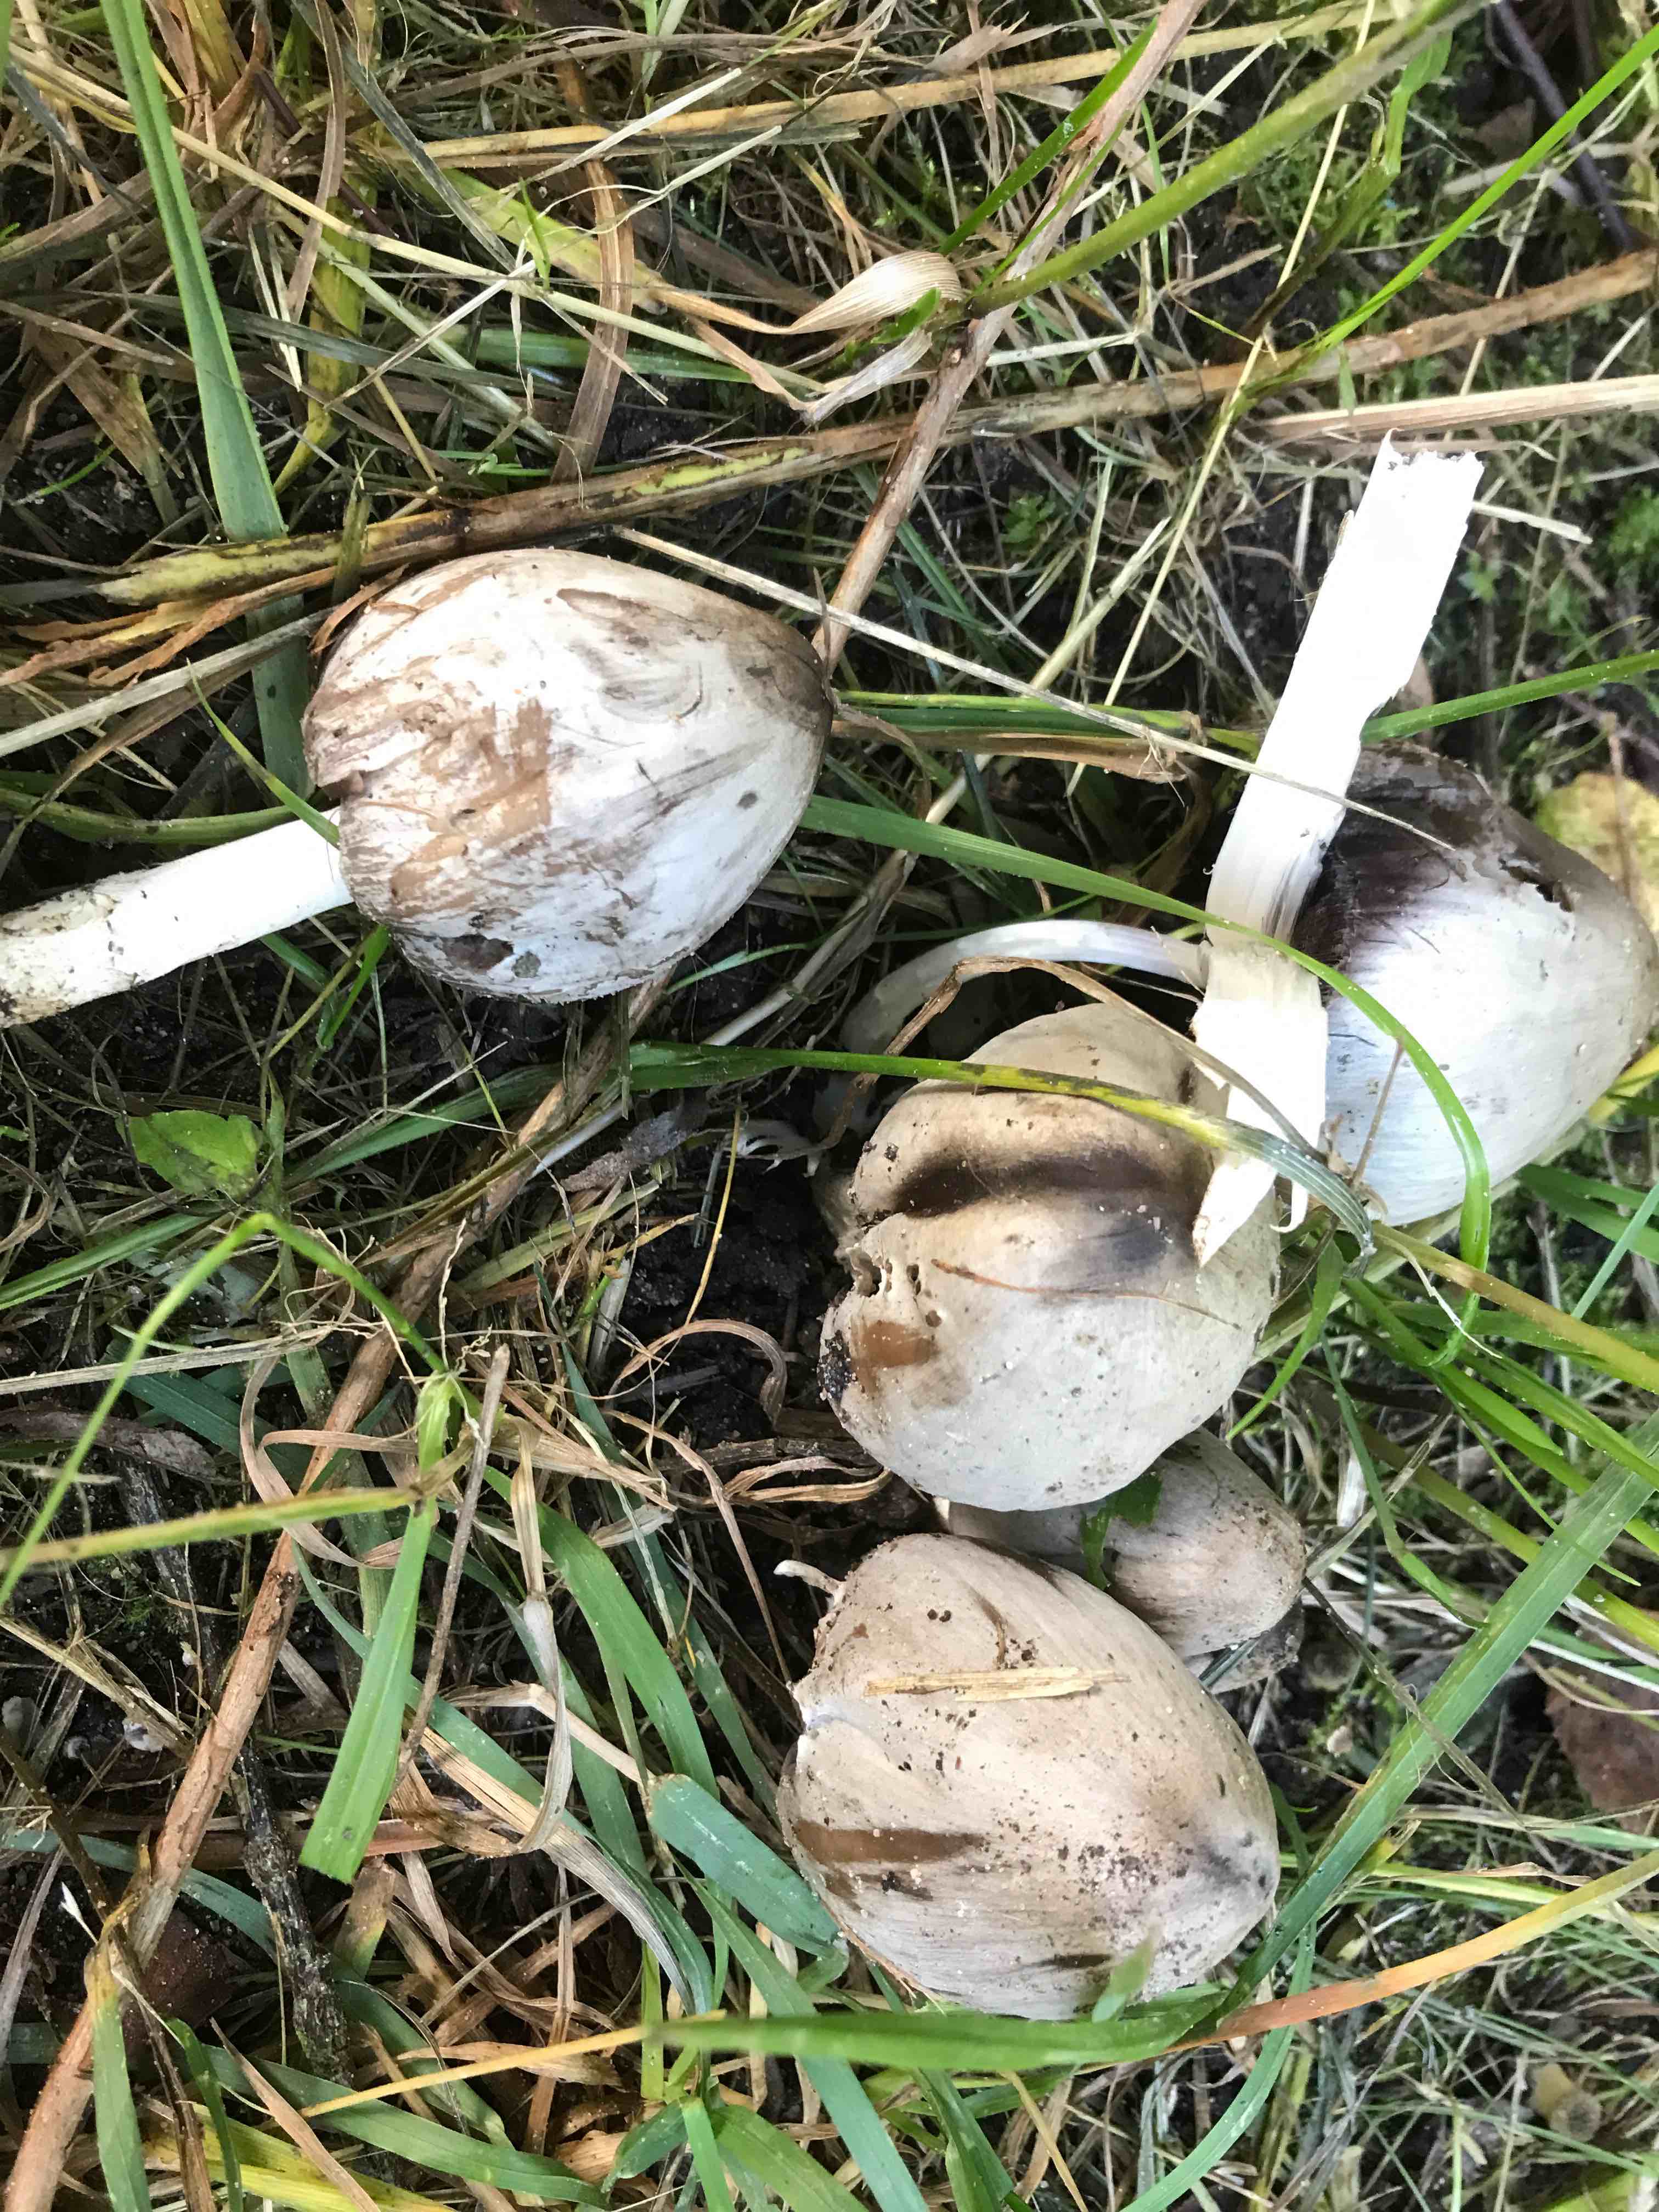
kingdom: Fungi
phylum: Basidiomycota
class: Agaricomycetes
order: Agaricales
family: Psathyrellaceae
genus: Coprinopsis
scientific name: Coprinopsis atramentaria
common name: almindelig blækhat
